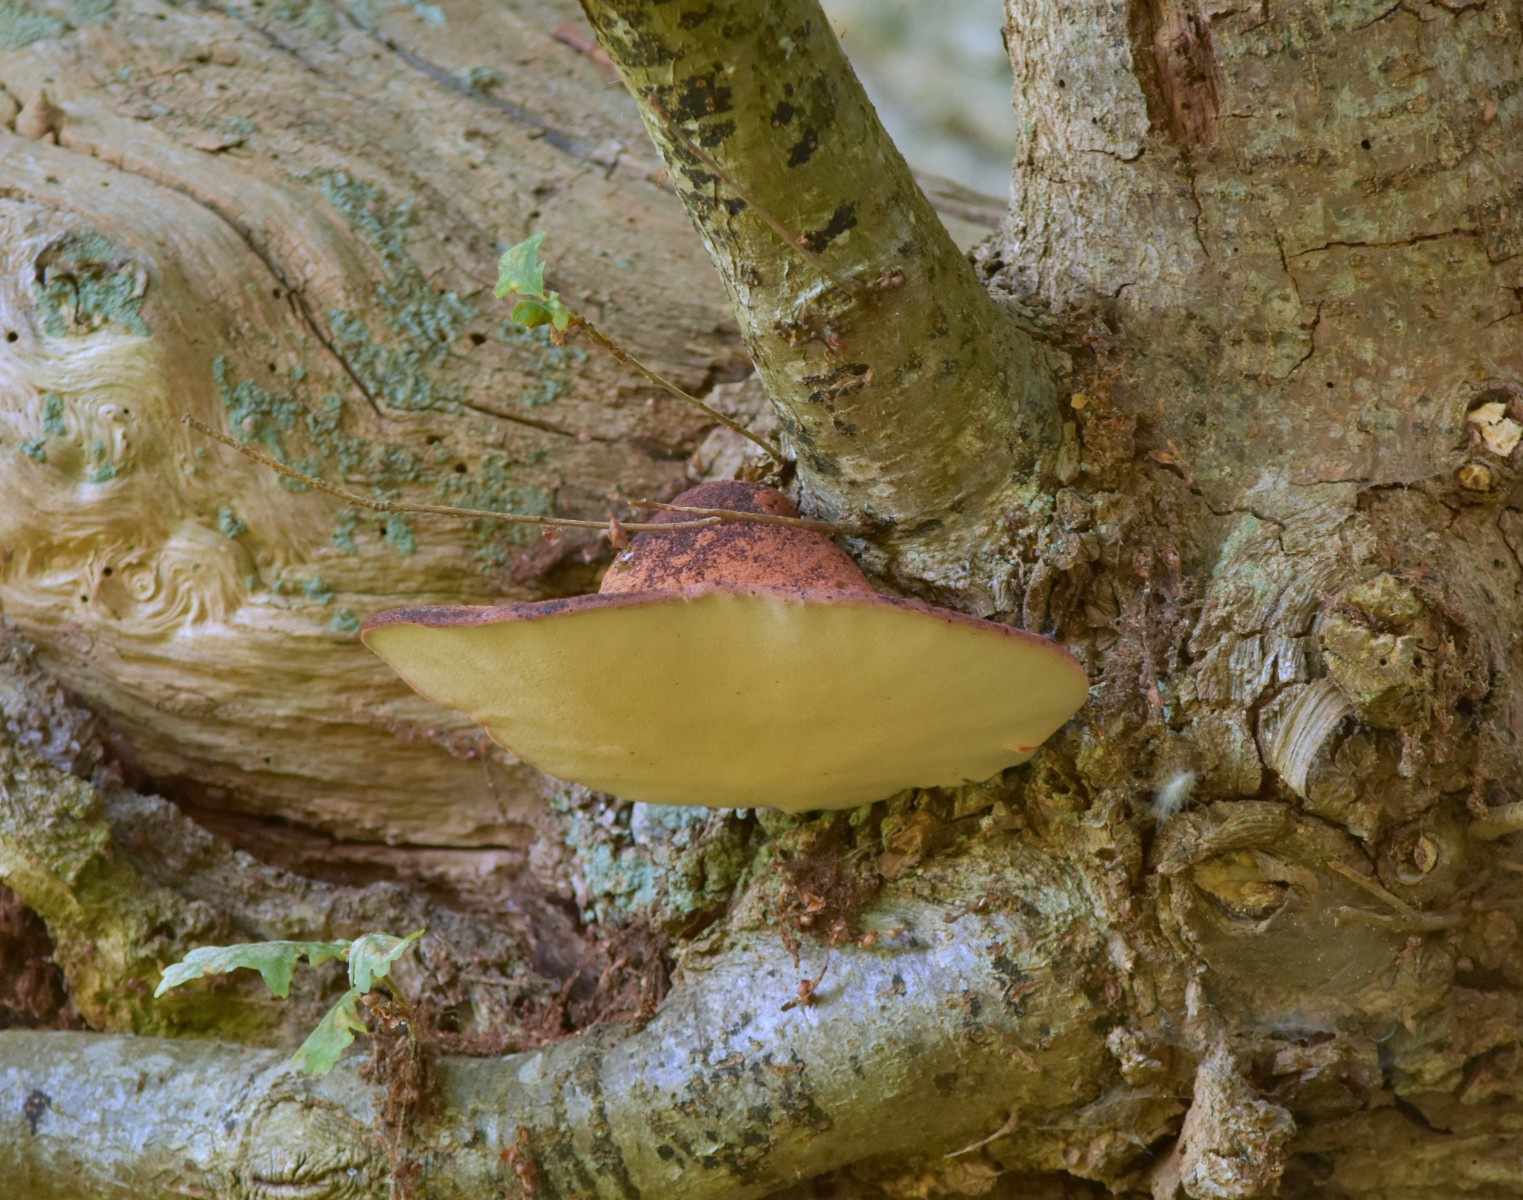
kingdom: Fungi
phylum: Basidiomycota
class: Agaricomycetes
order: Agaricales
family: Fistulinaceae
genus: Fistulina
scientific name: Fistulina hepatica
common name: oksetunge
